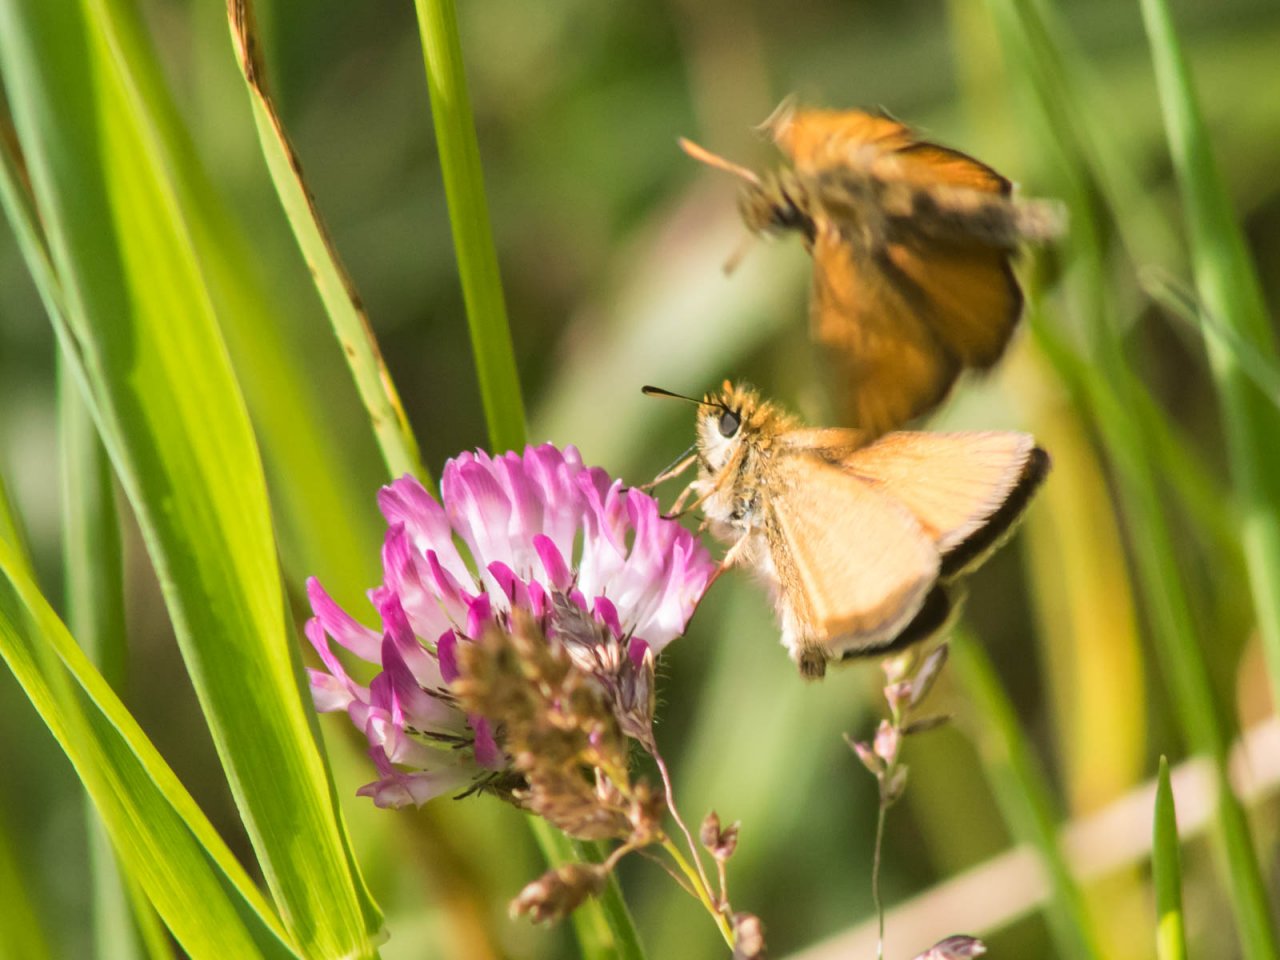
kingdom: Animalia
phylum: Arthropoda
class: Insecta
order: Lepidoptera
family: Hesperiidae
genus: Thymelicus
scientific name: Thymelicus lineola
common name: European Skipper
